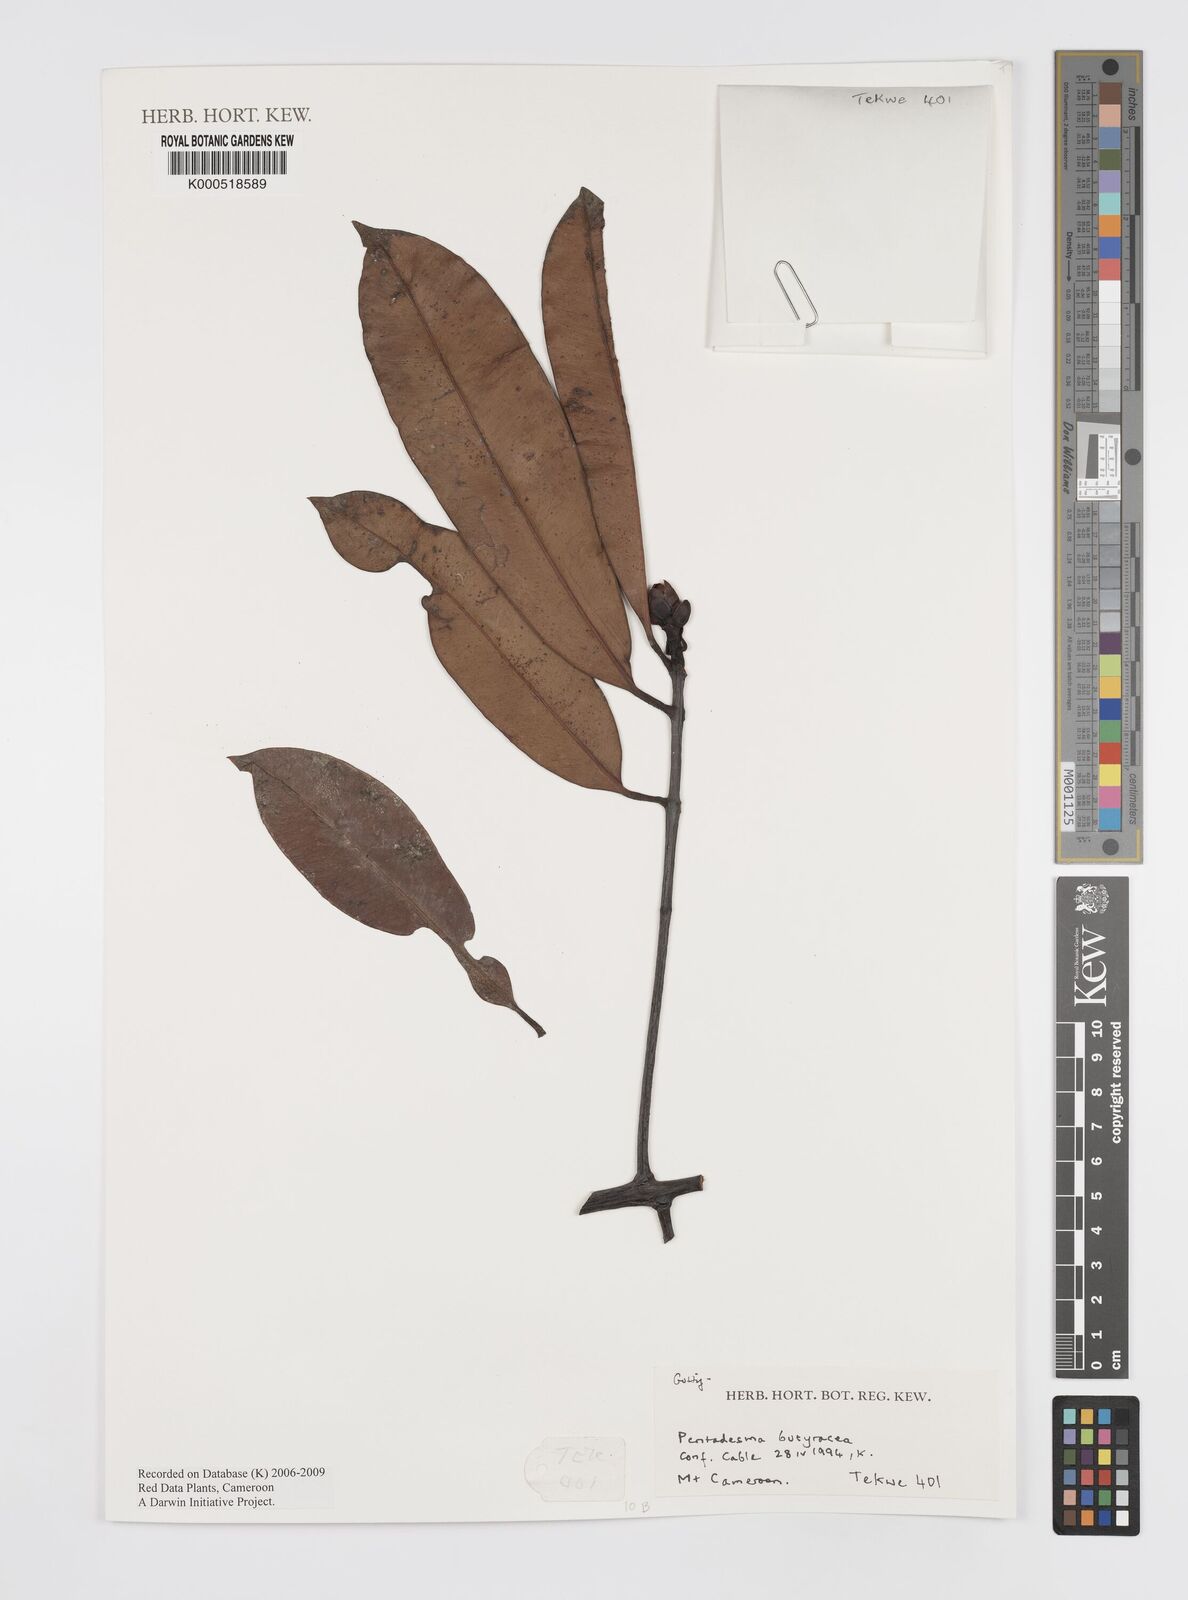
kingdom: Plantae
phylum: Tracheophyta
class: Magnoliopsida
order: Malpighiales
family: Clusiaceae
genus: Pentadesma
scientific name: Pentadesma butyracea
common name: Buttertree
